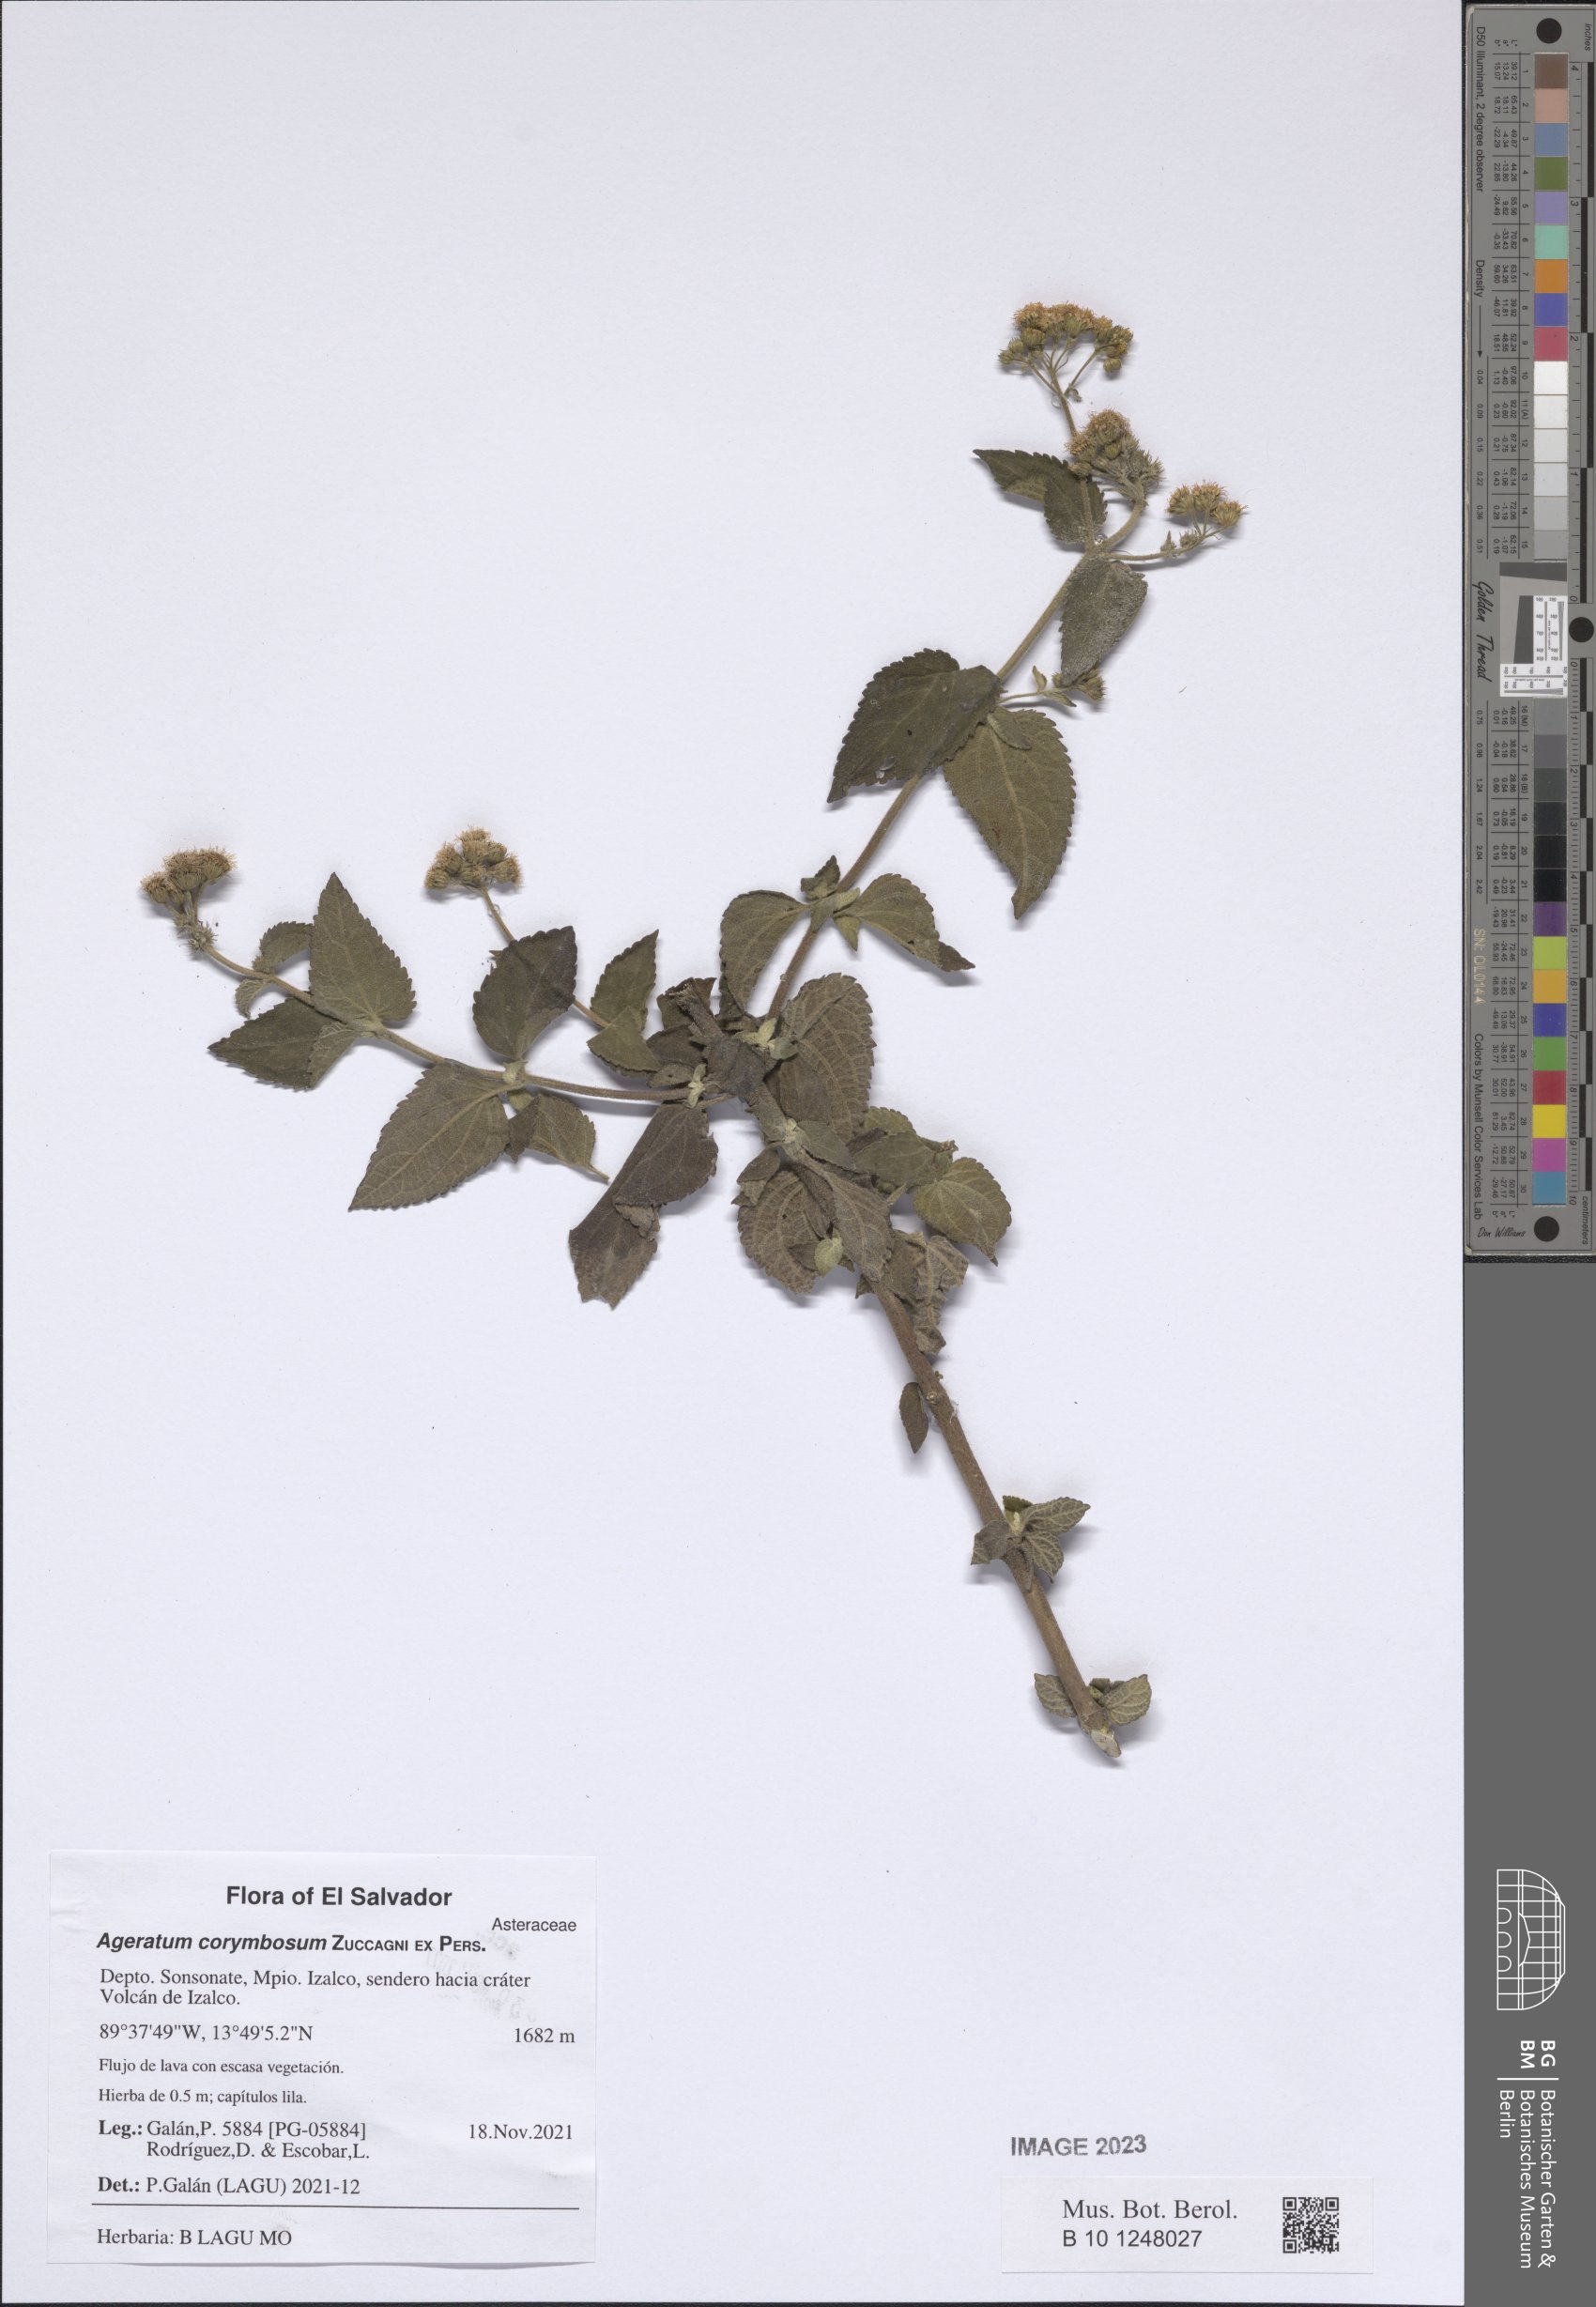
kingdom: Plantae
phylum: Tracheophyta
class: Magnoliopsida
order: Asterales
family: Asteraceae
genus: Ageratum
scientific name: Ageratum corymbosum
